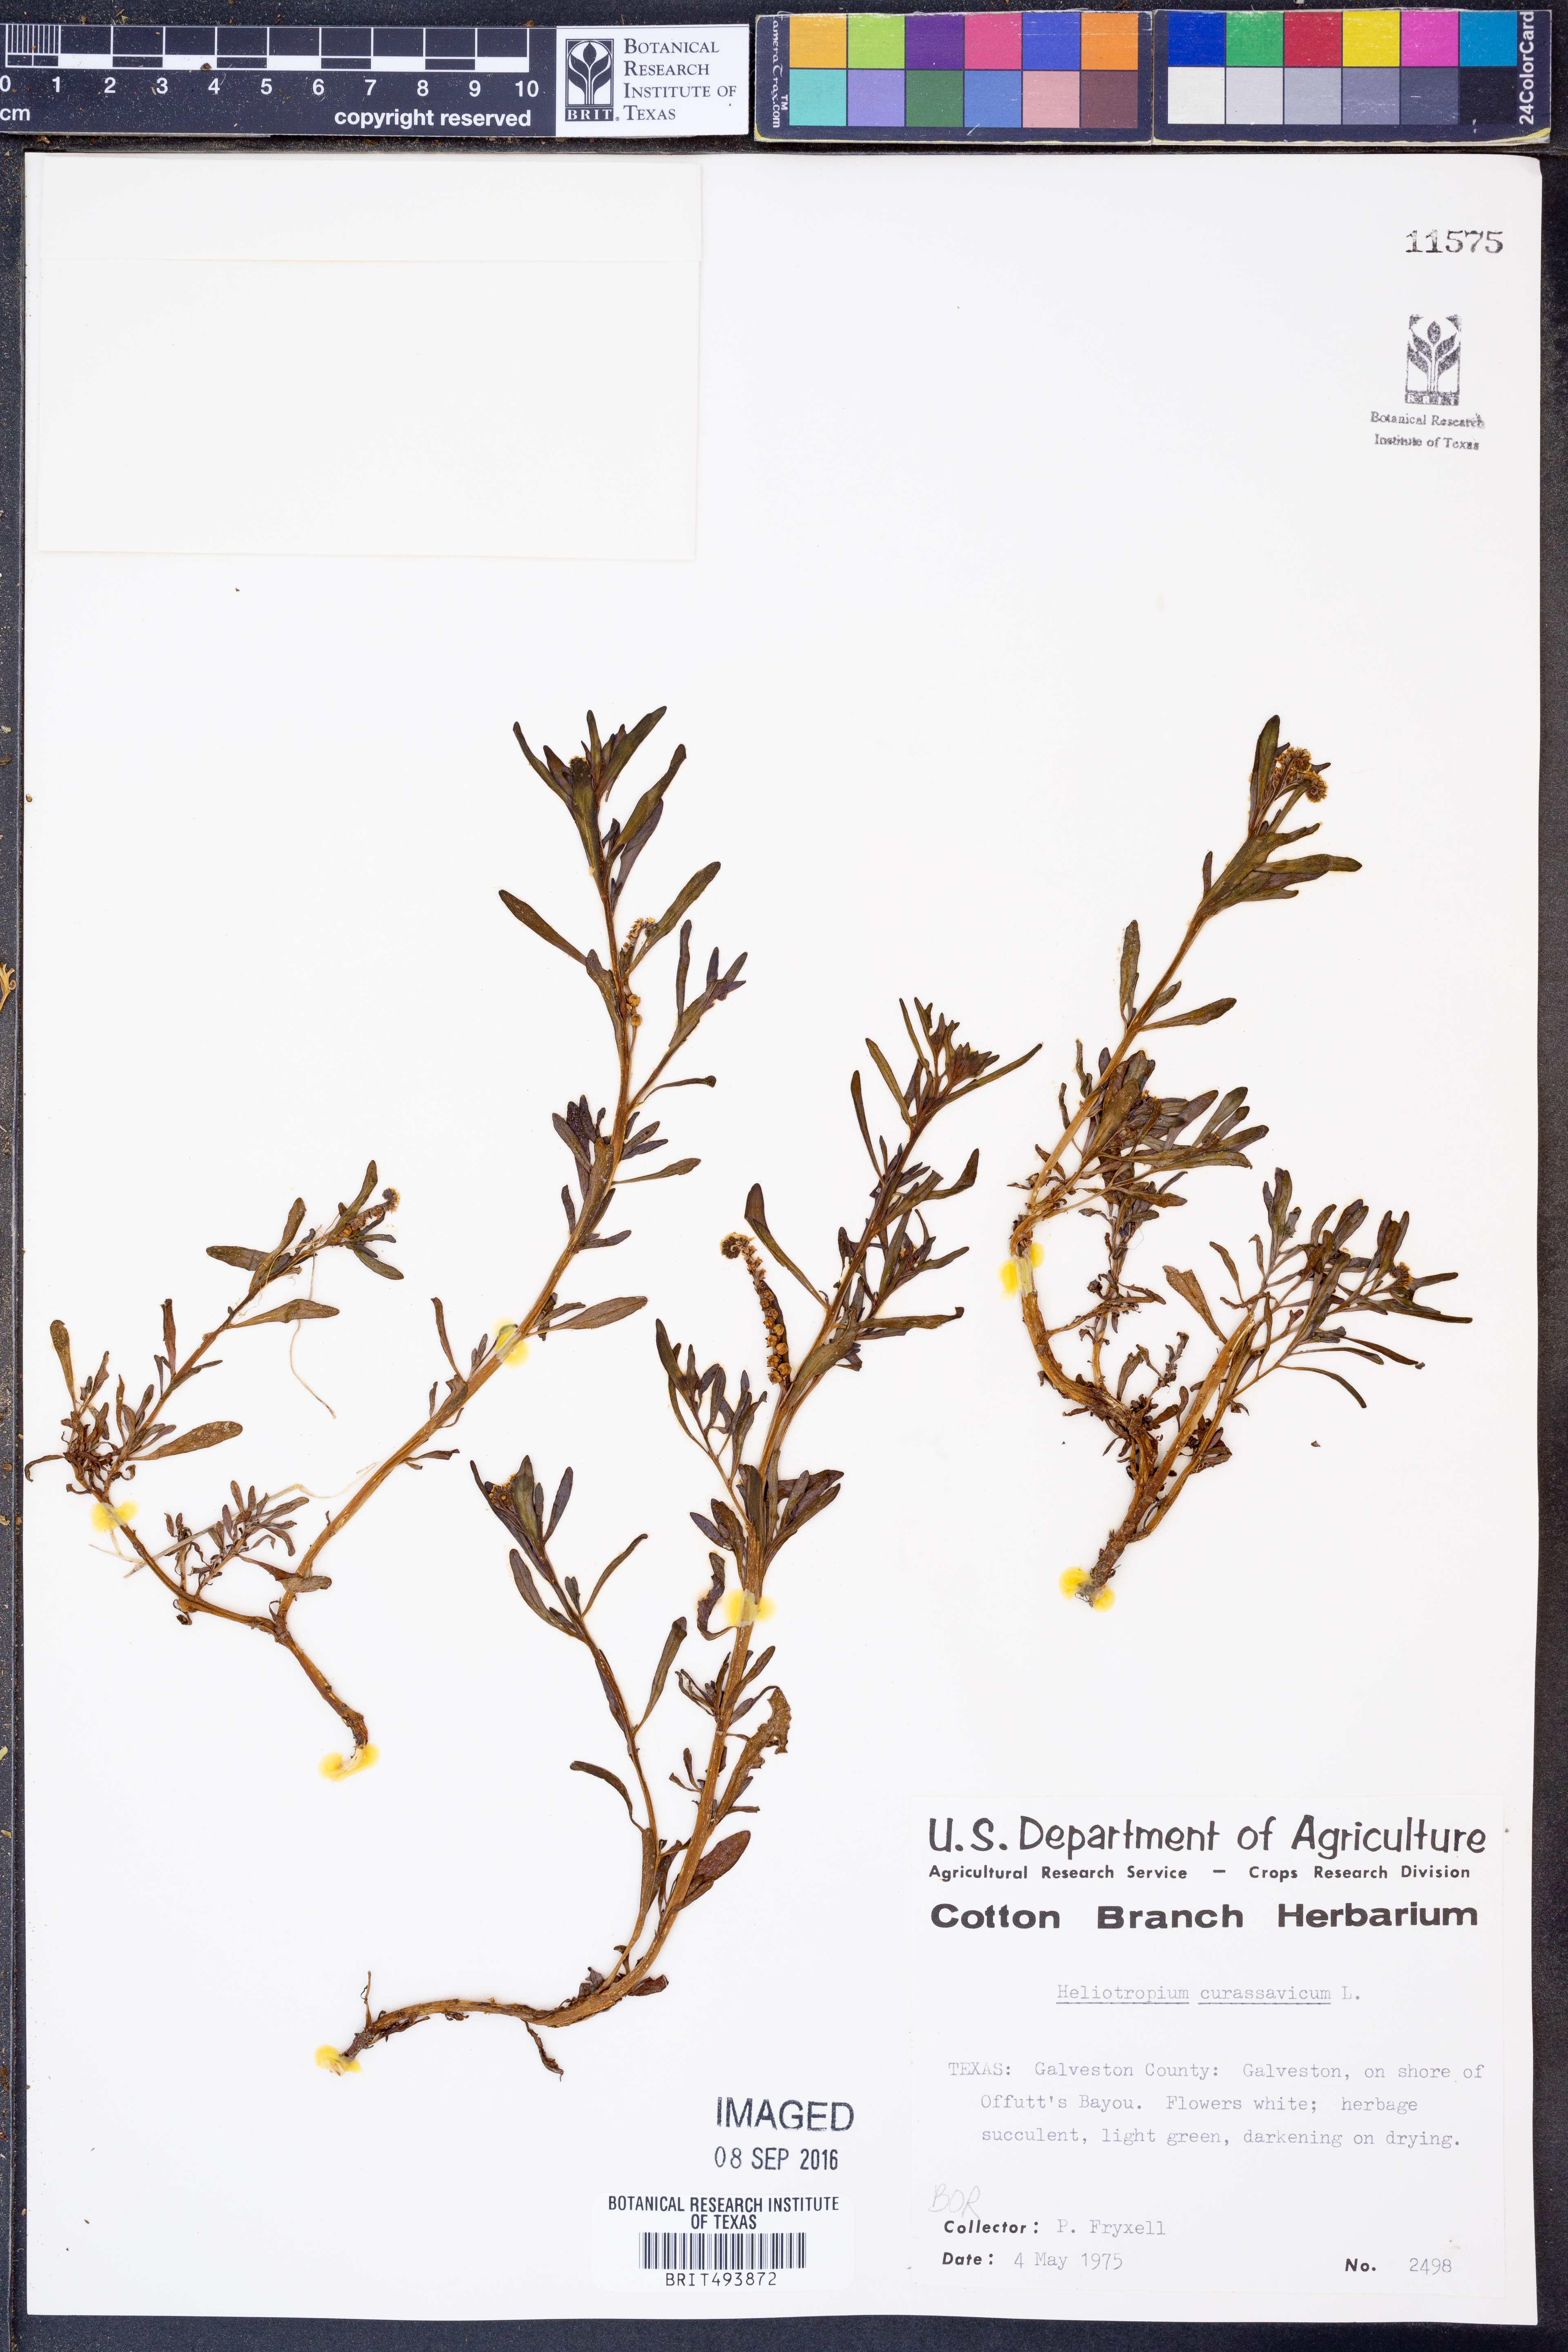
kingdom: Plantae
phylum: Tracheophyta
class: Magnoliopsida
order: Boraginales
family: Heliotropiaceae
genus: Heliotropium
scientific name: Heliotropium curassavicum
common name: Seaside heliotrope
